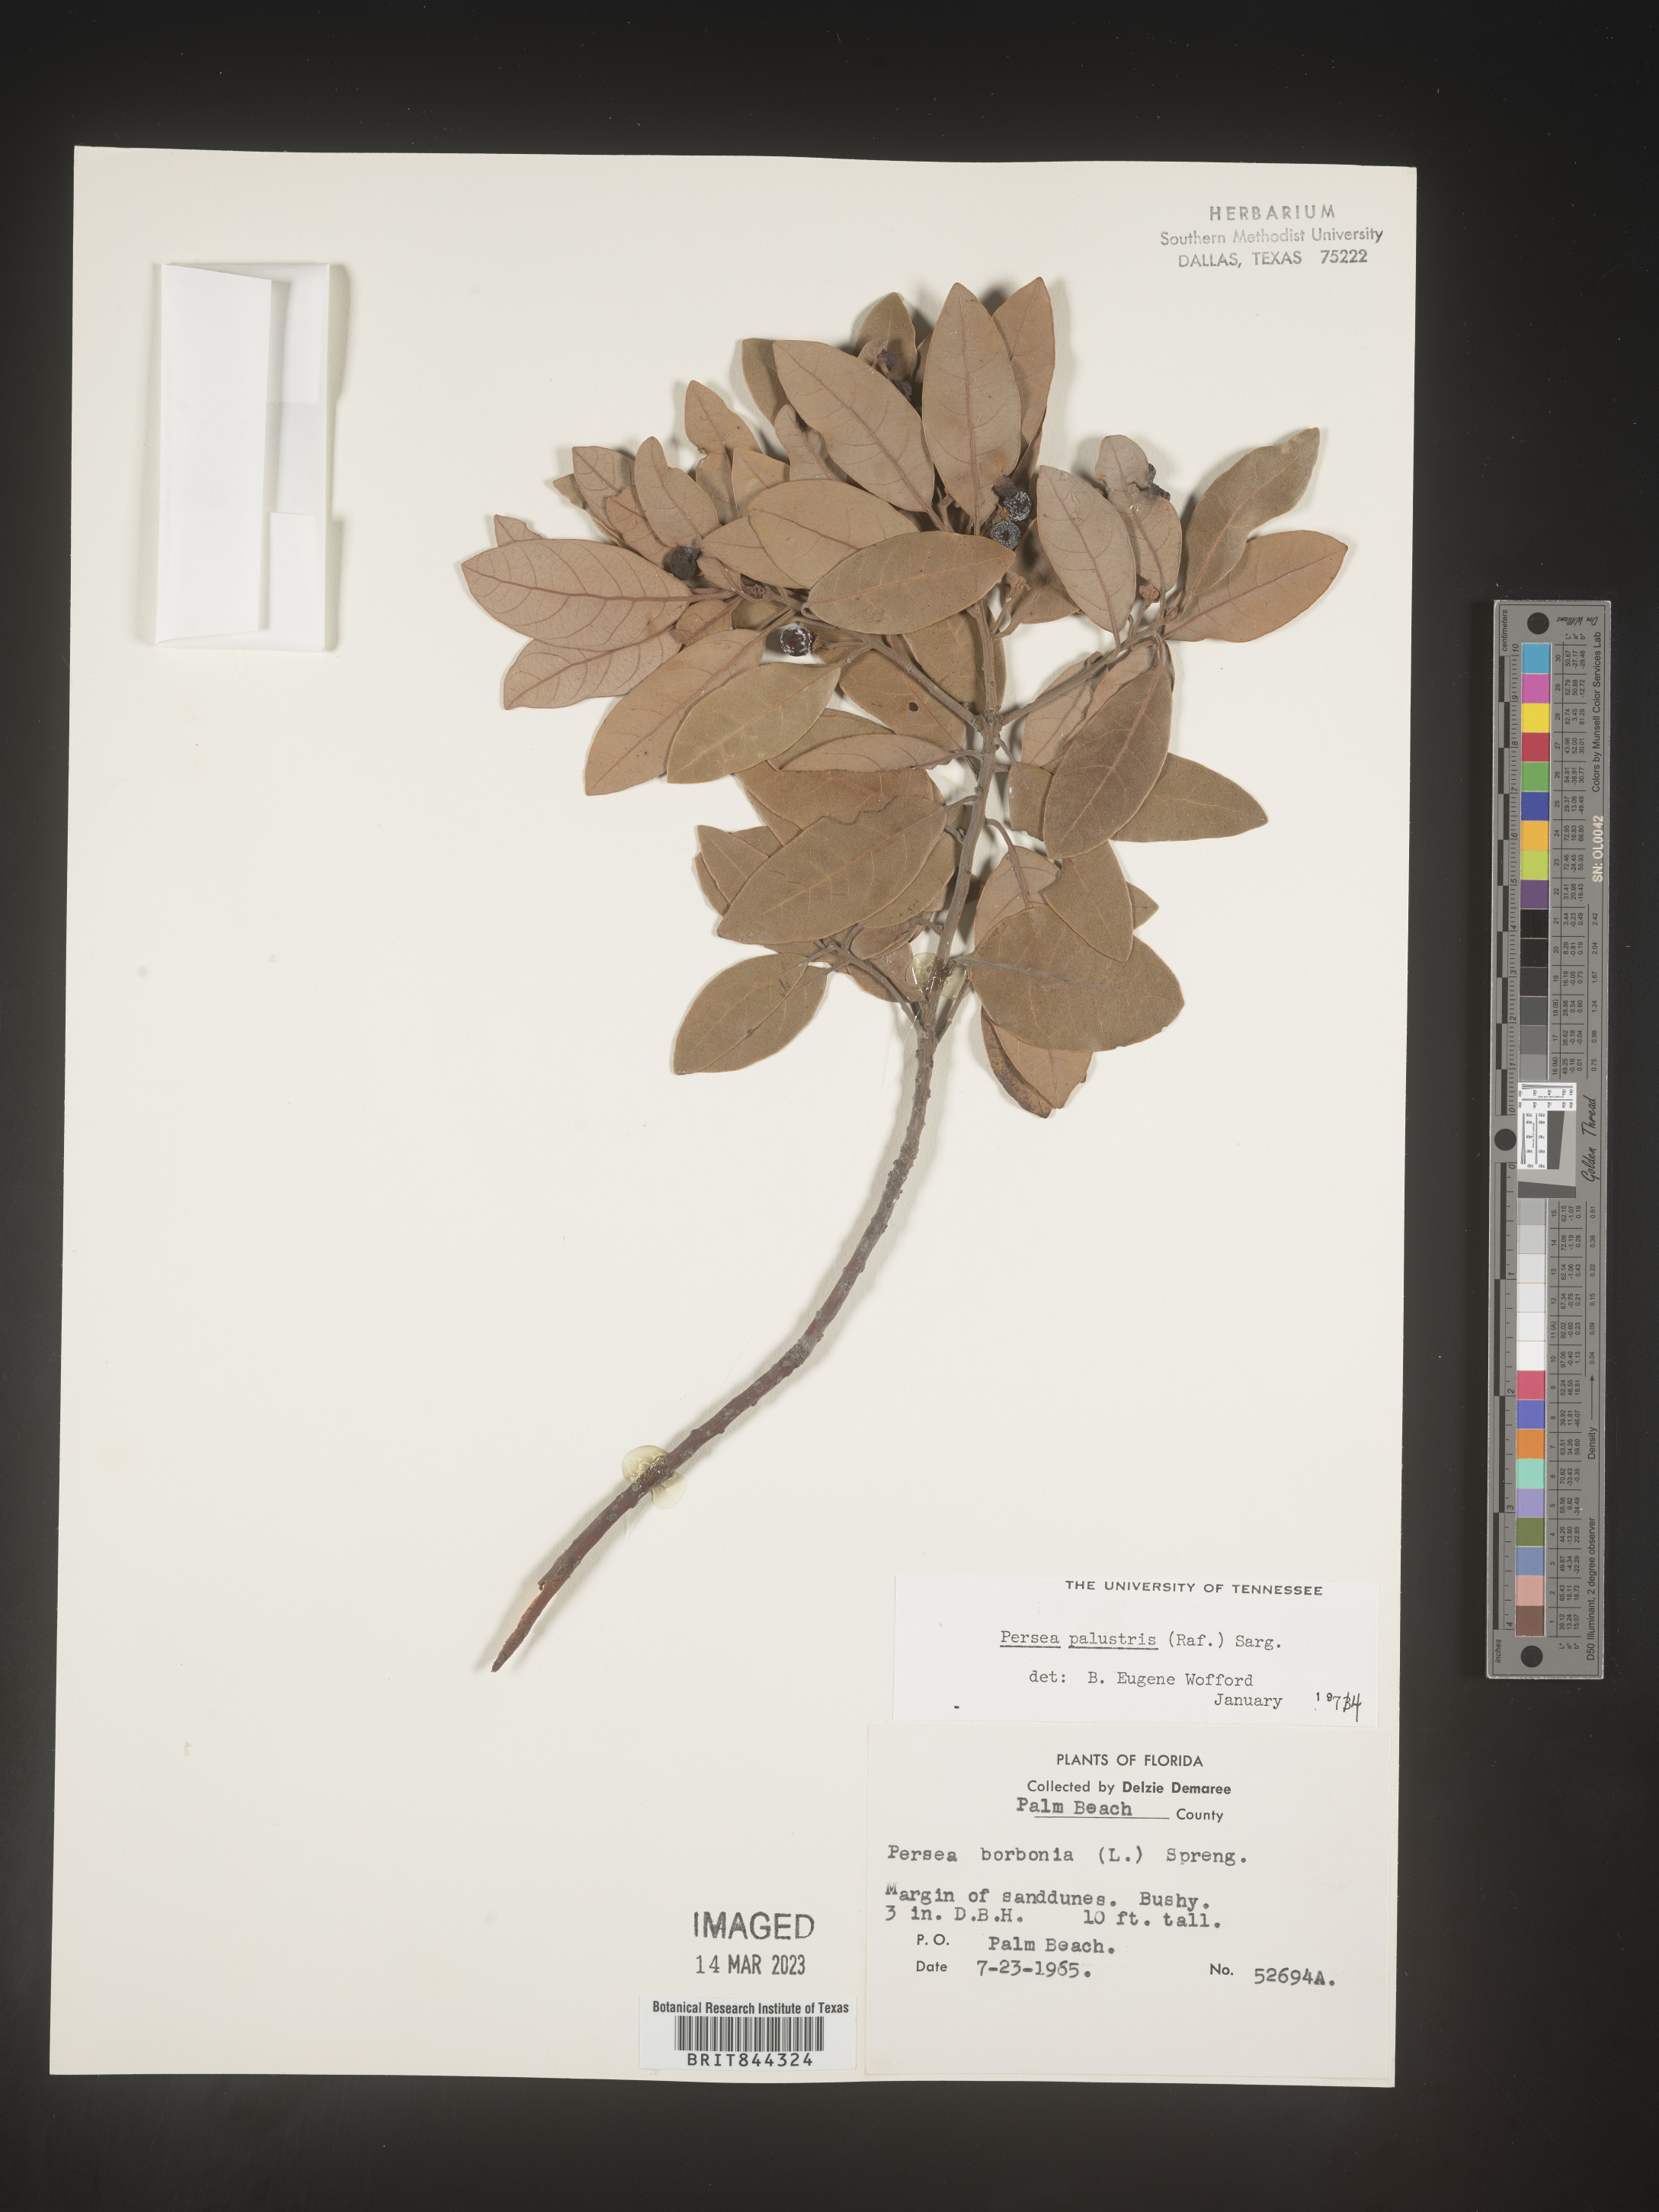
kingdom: Plantae
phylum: Tracheophyta
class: Magnoliopsida
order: Laurales
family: Lauraceae
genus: Persea
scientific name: Persea palustris
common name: Swampbay
